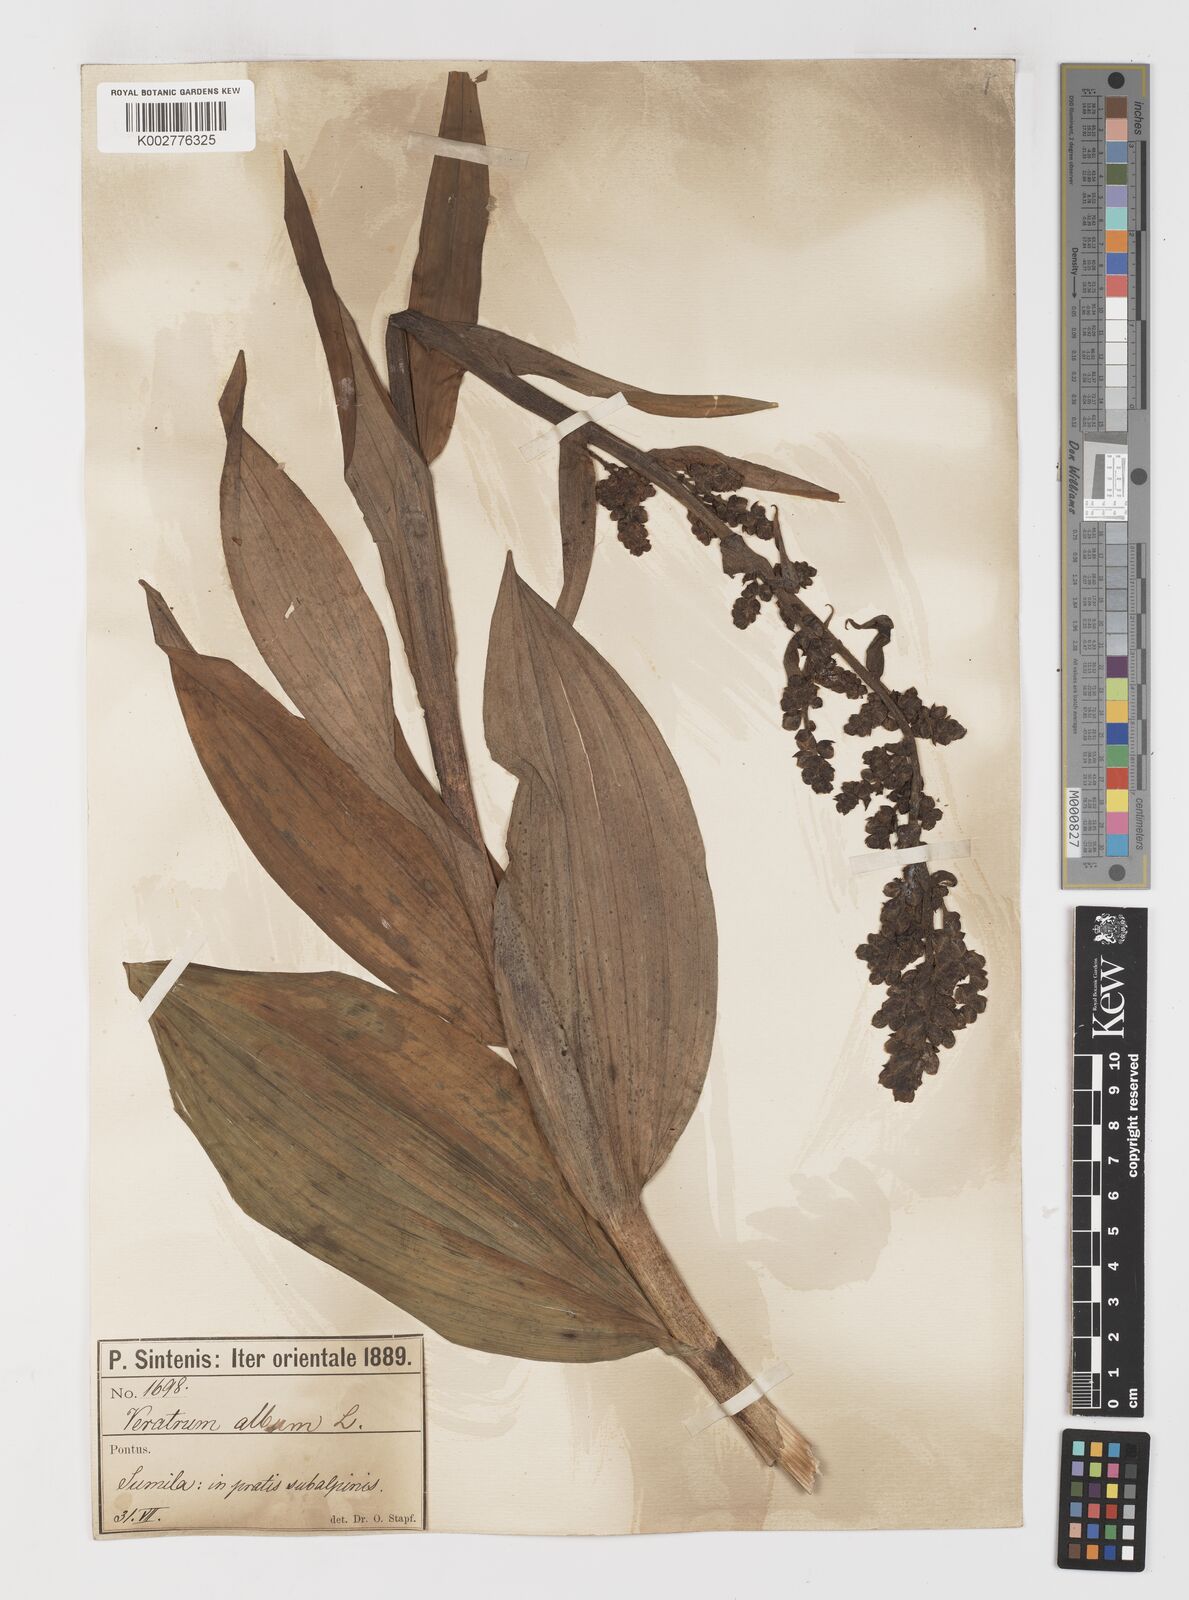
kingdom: Plantae
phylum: Tracheophyta
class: Liliopsida
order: Liliales
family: Melanthiaceae
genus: Veratrum
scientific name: Veratrum album
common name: White veratrum
